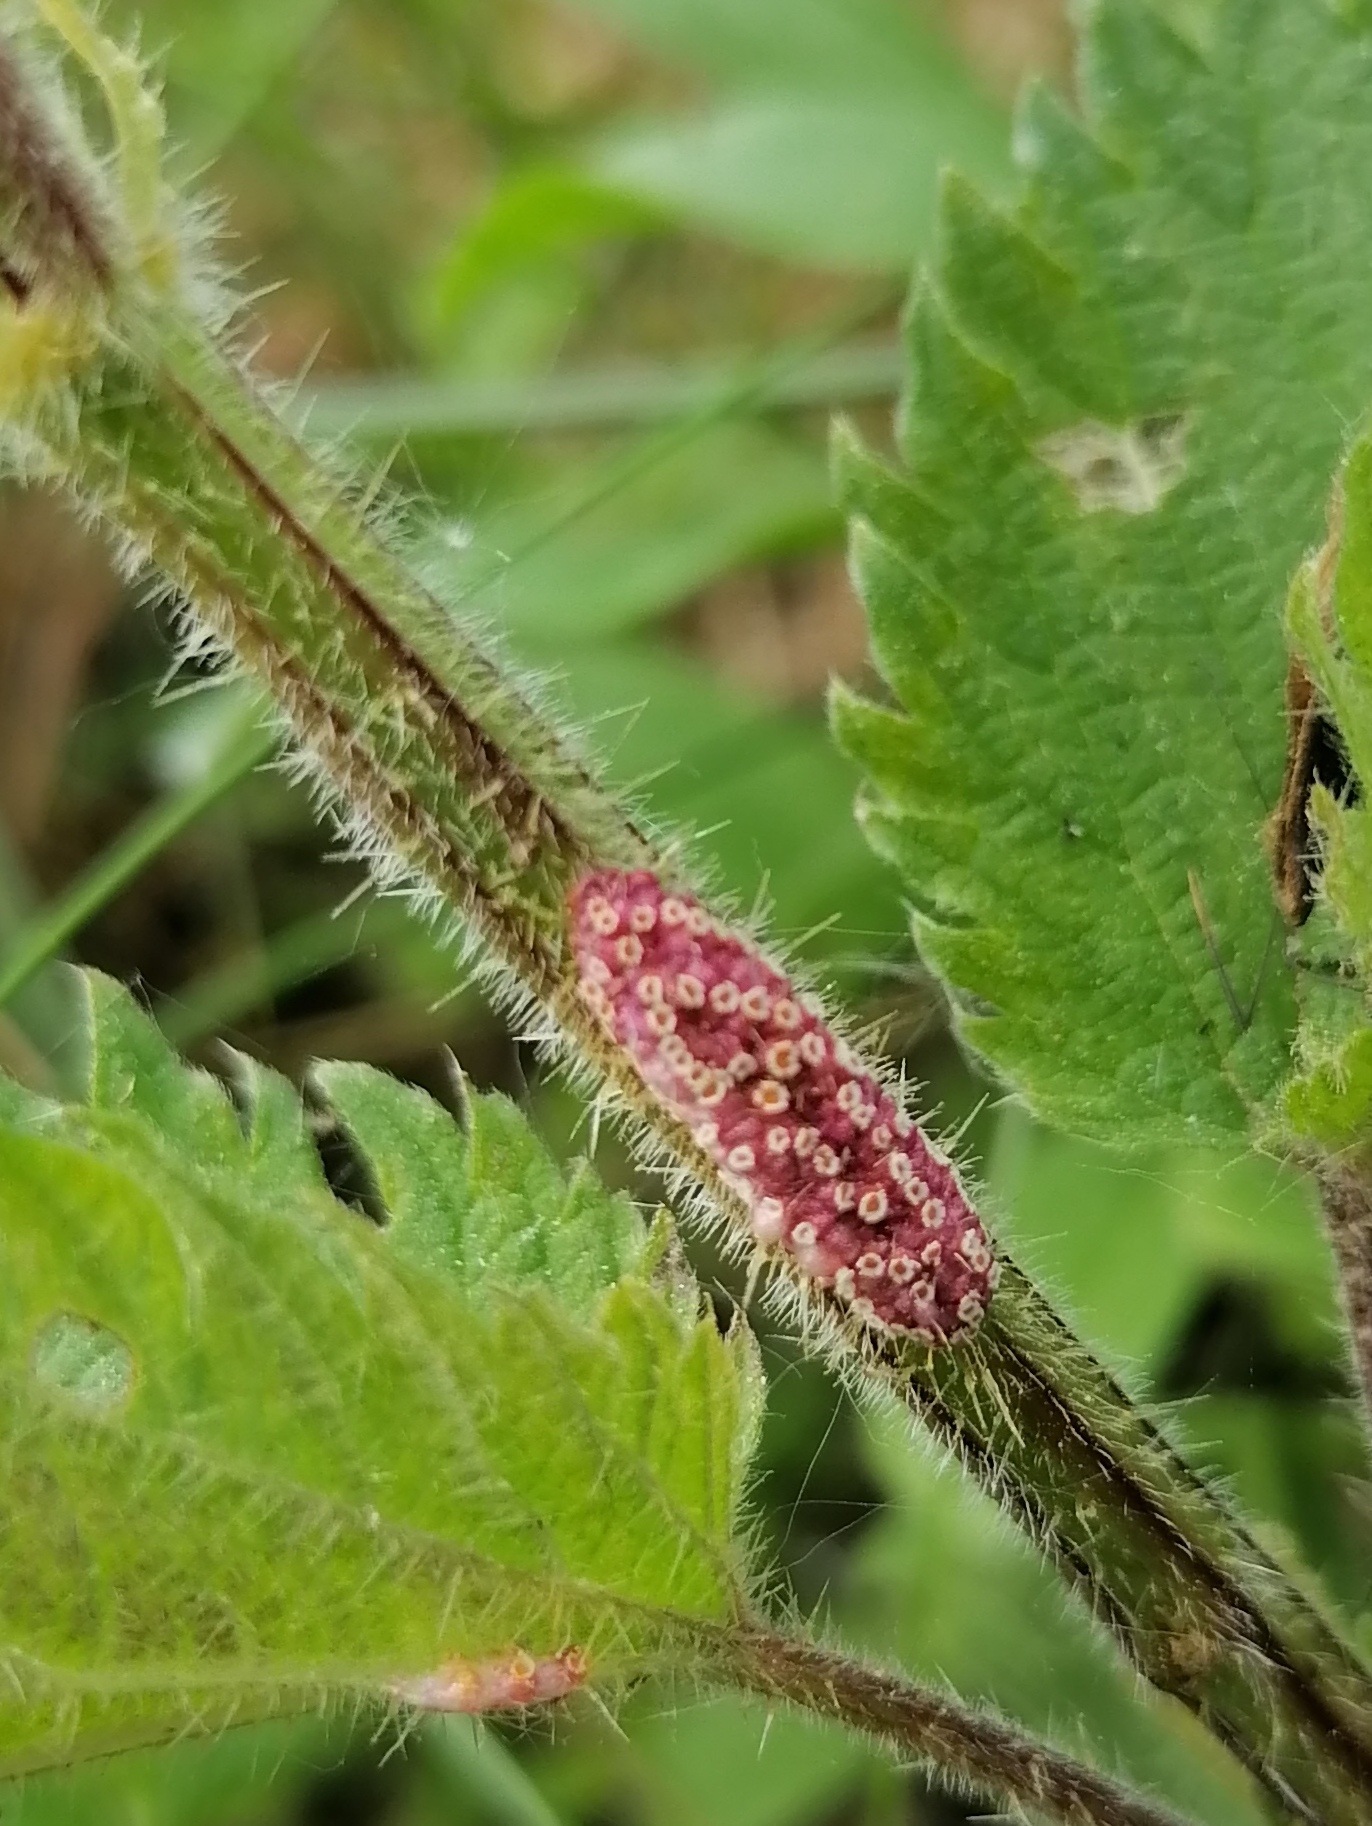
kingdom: Fungi
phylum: Basidiomycota
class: Pucciniomycetes
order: Pucciniales
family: Pucciniaceae
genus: Puccinia
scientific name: Puccinia urticata
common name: nældegalle-tvecellerust
